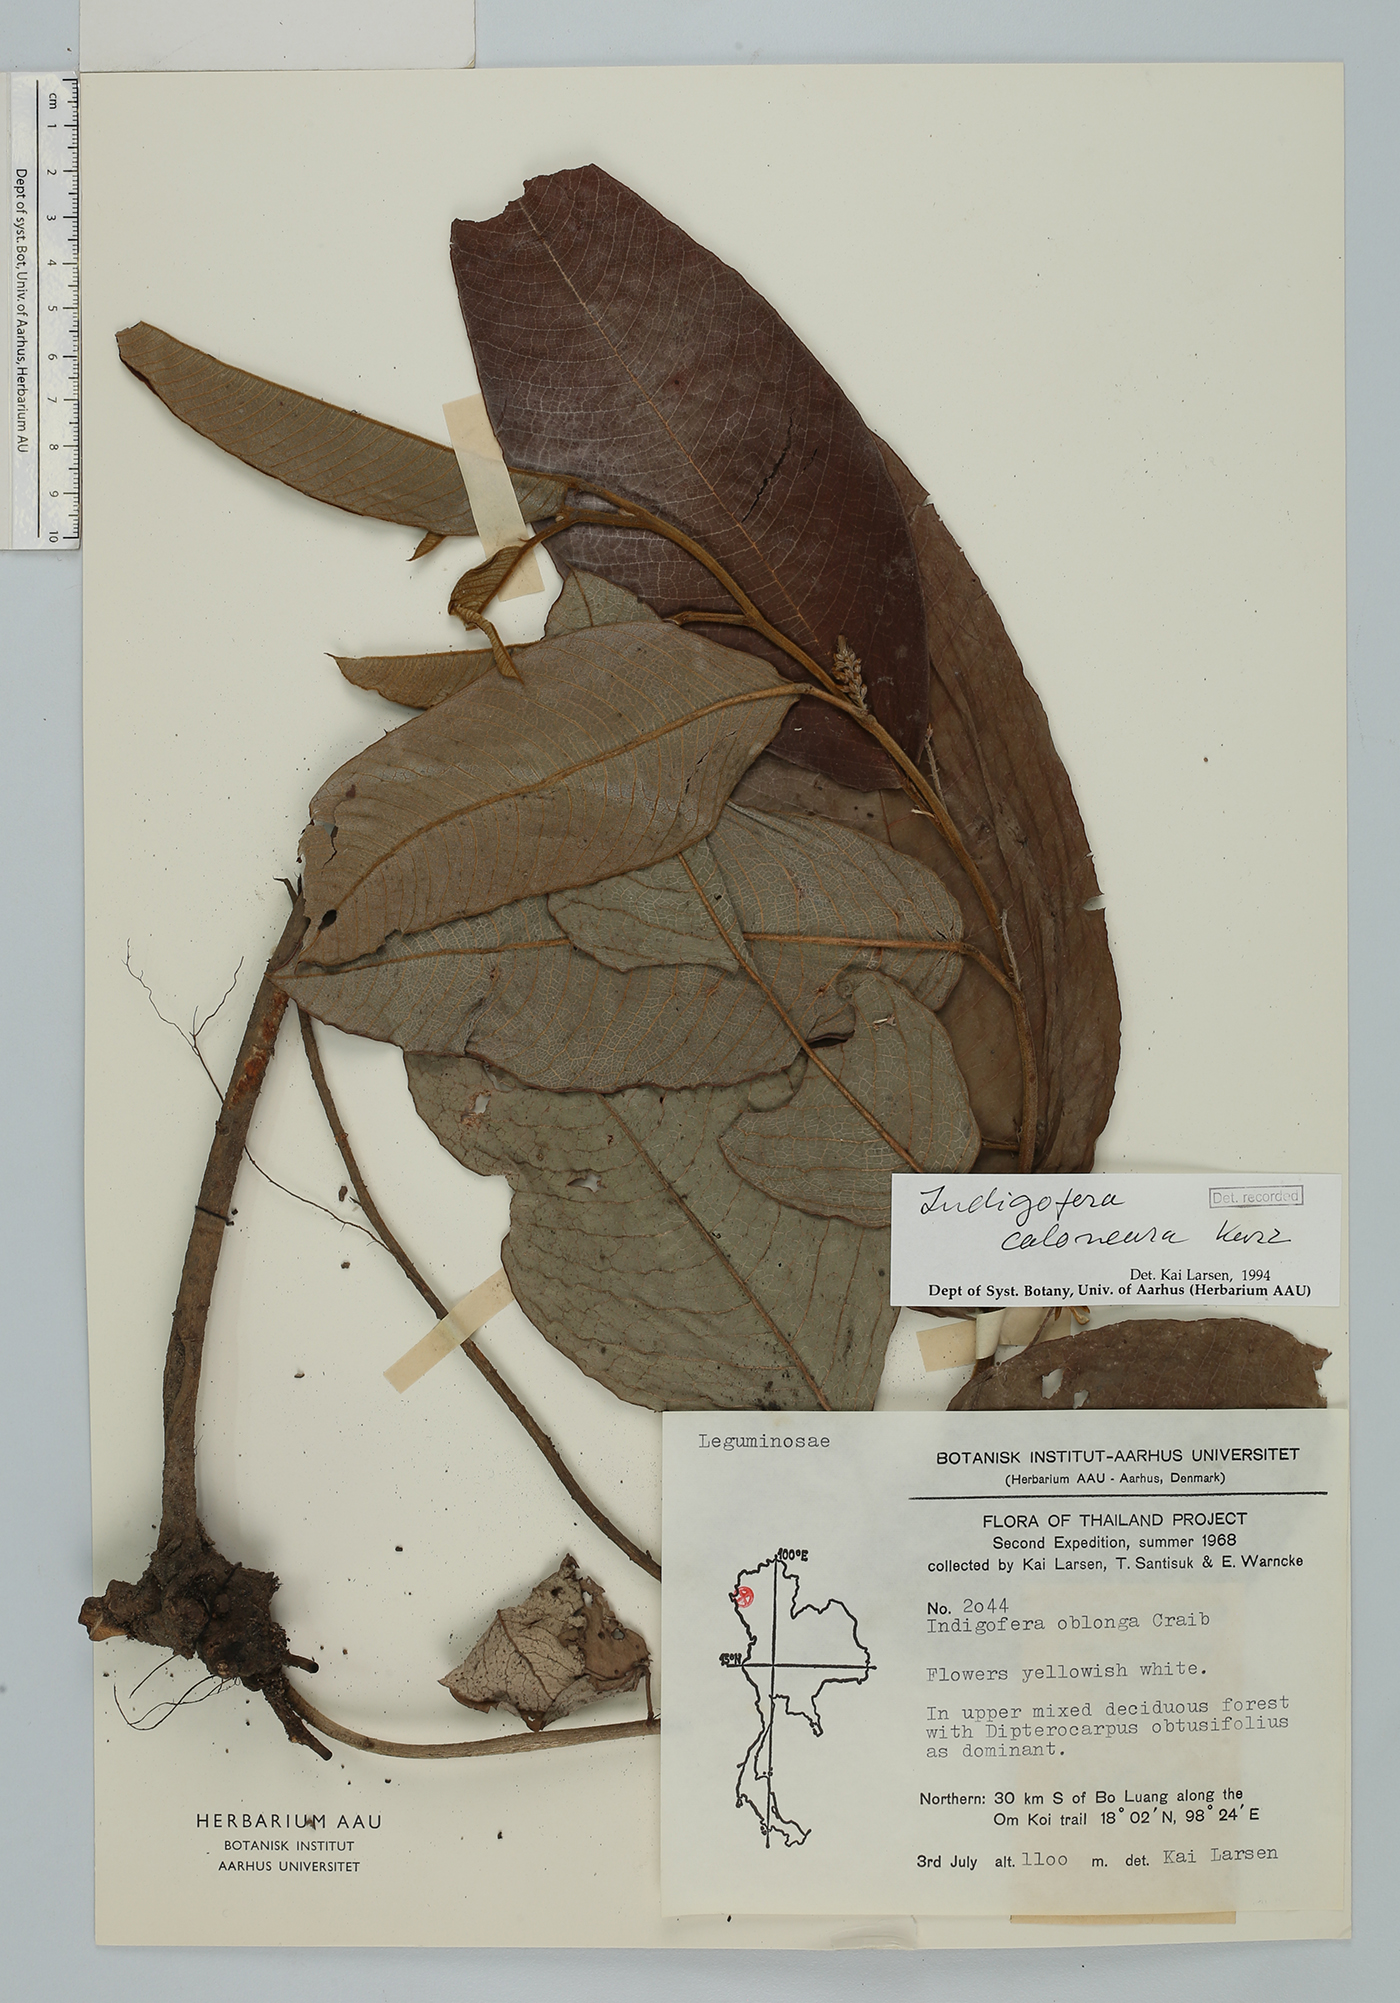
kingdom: Plantae
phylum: Tracheophyta
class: Magnoliopsida
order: Fabales
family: Fabaceae
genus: Indigofera
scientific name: Indigofera caloneura
